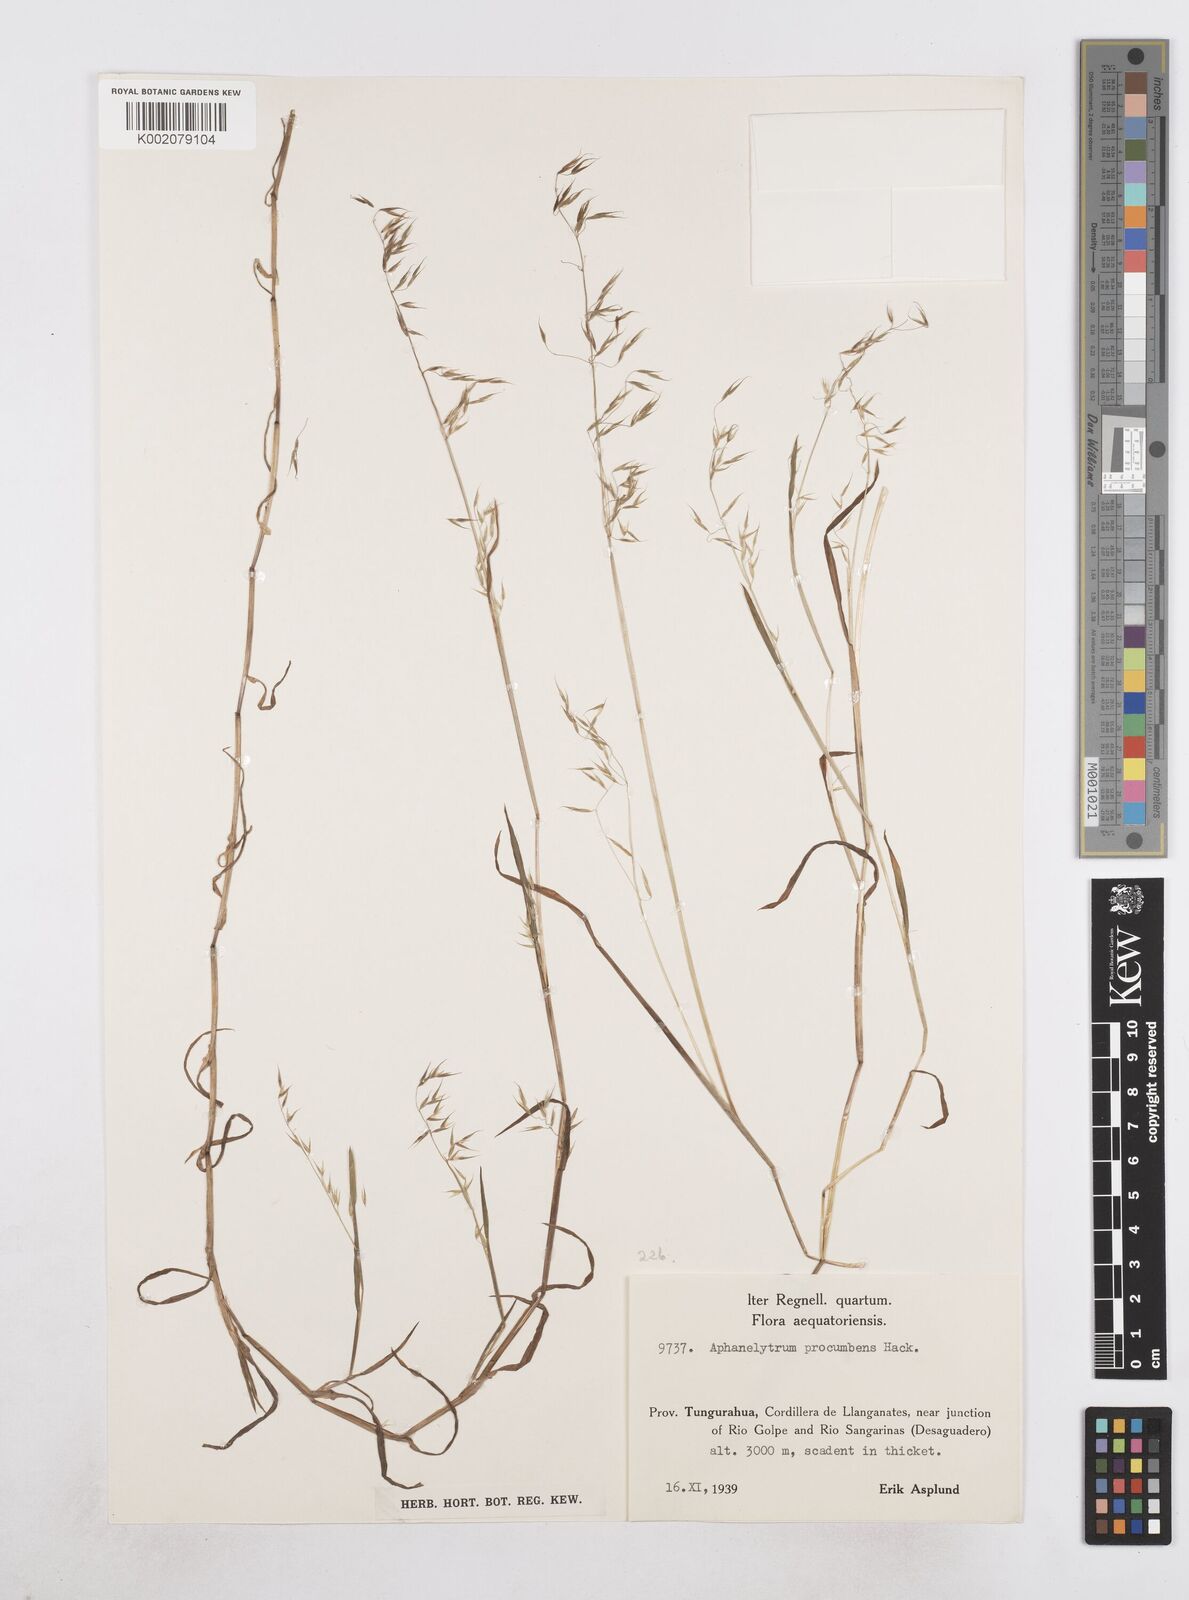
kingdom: Plantae
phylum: Tracheophyta
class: Liliopsida
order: Poales
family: Poaceae
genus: Poa
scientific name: Poa hitchcockiana
